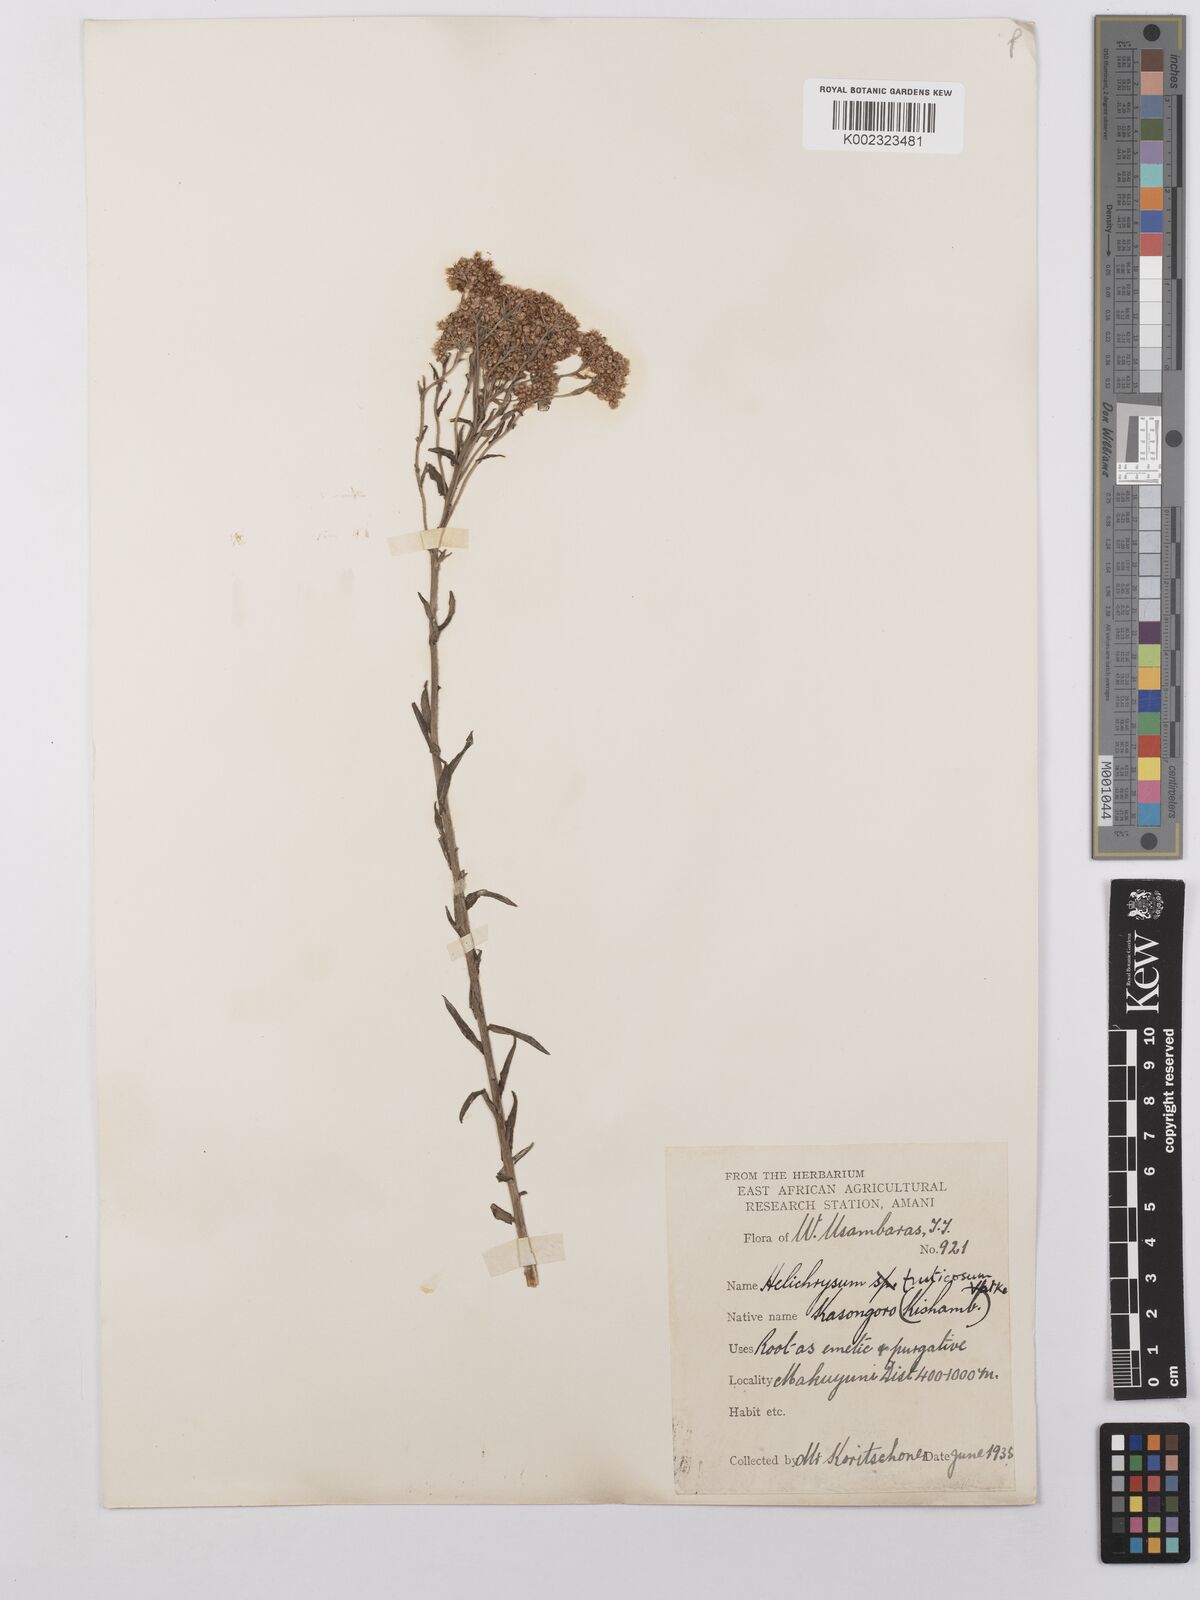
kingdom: Plantae
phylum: Tracheophyta
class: Magnoliopsida
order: Asterales
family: Asteraceae
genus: Helichrysum
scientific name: Helichrysum forskahlii
